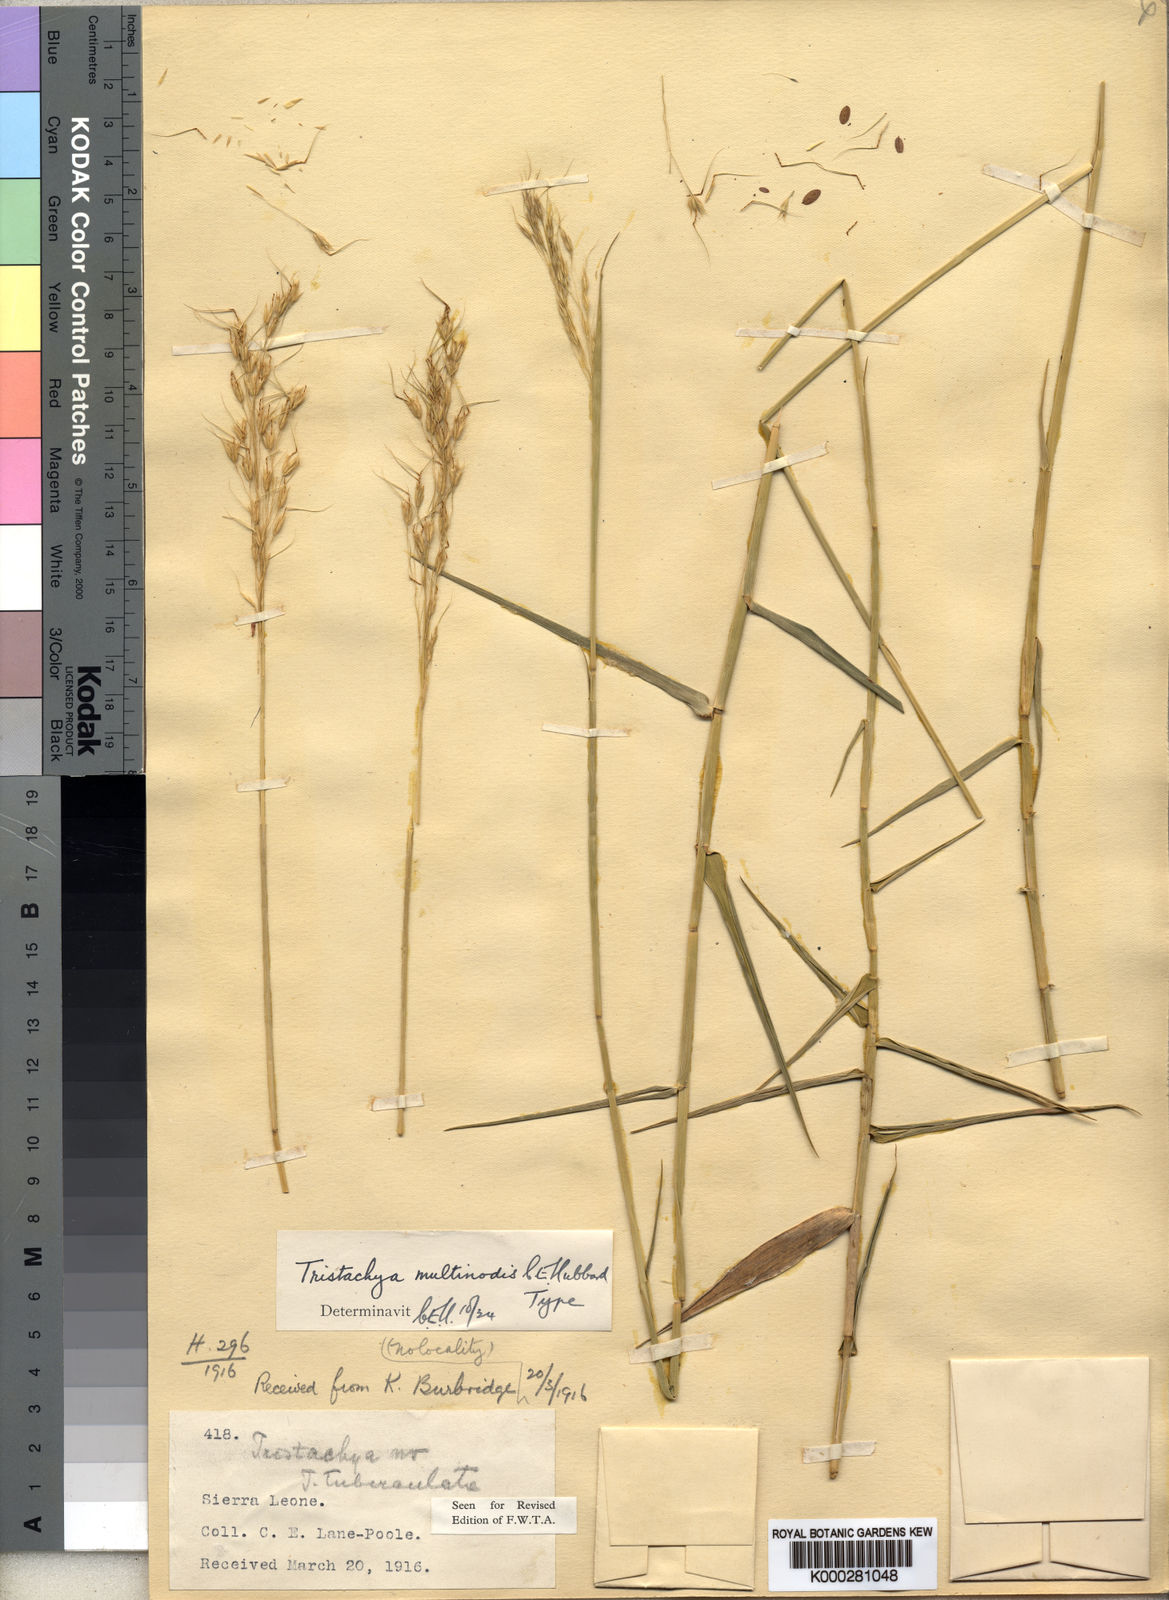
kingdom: Plantae
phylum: Tracheophyta
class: Liliopsida
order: Poales
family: Poaceae
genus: Dilophotriche
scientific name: Dilophotriche
